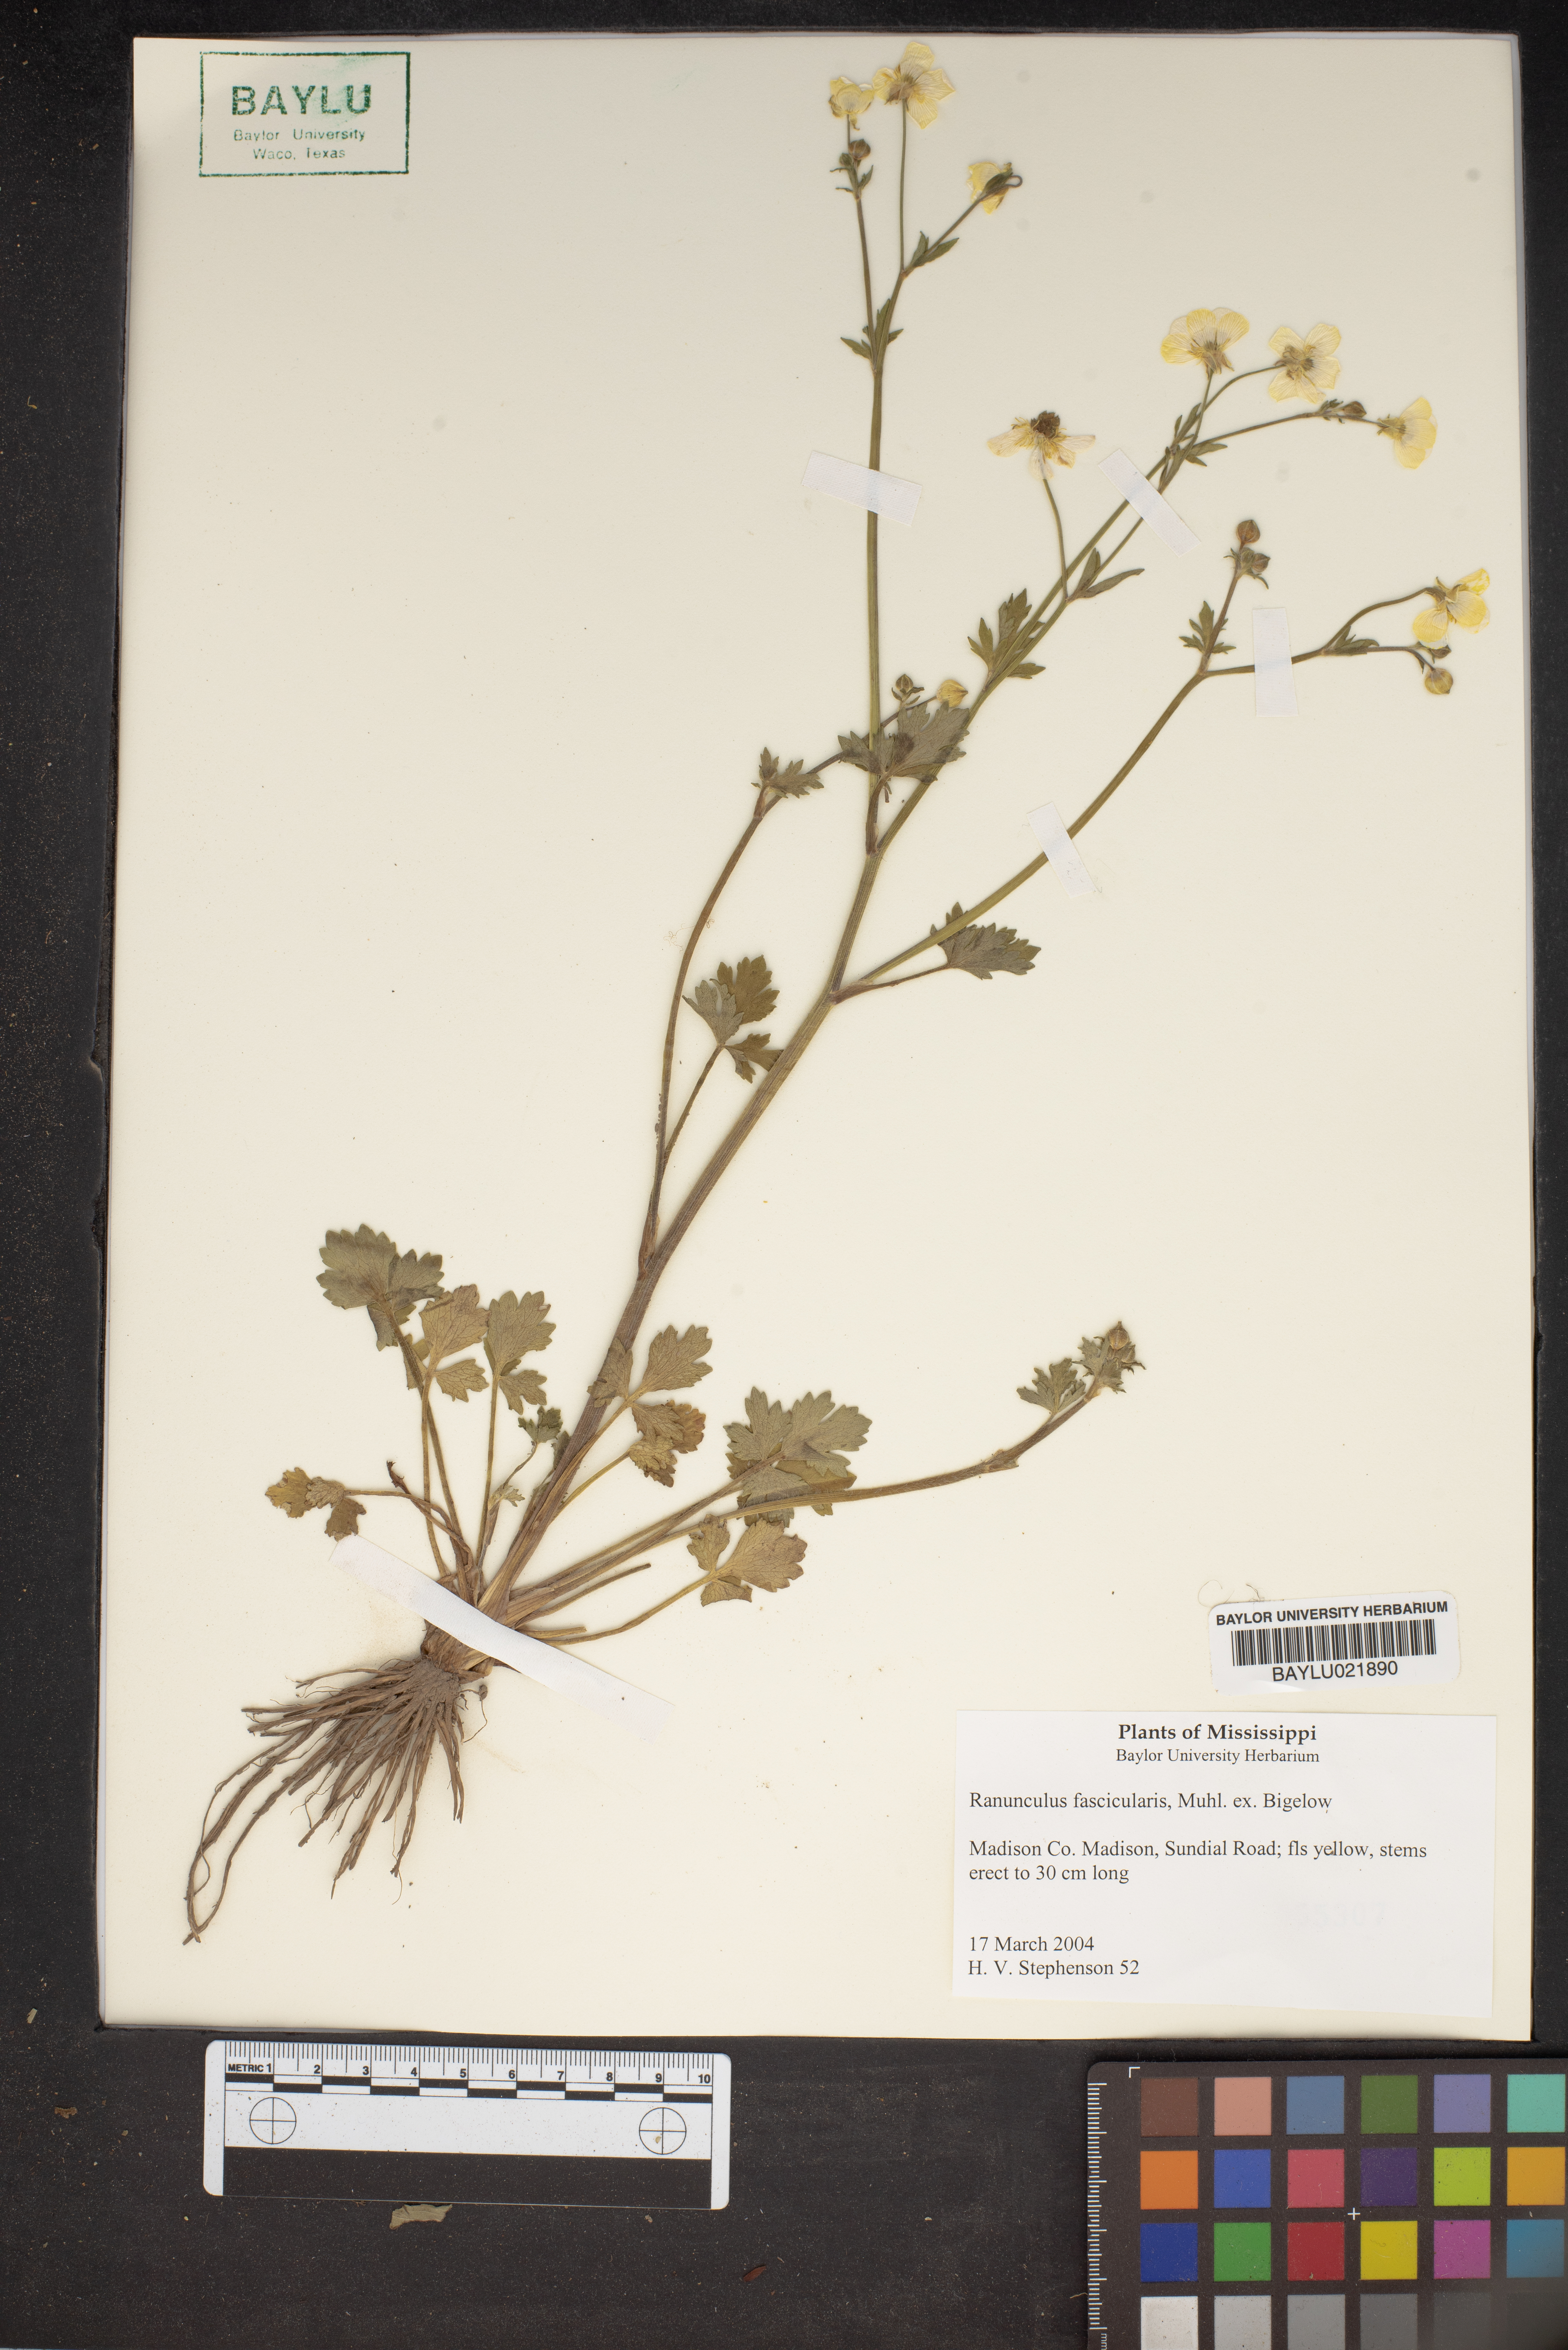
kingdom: Plantae
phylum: Tracheophyta
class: Magnoliopsida
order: Ranunculales
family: Ranunculaceae
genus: Ranunculus
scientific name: Ranunculus fascicularis
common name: Early buttercup
